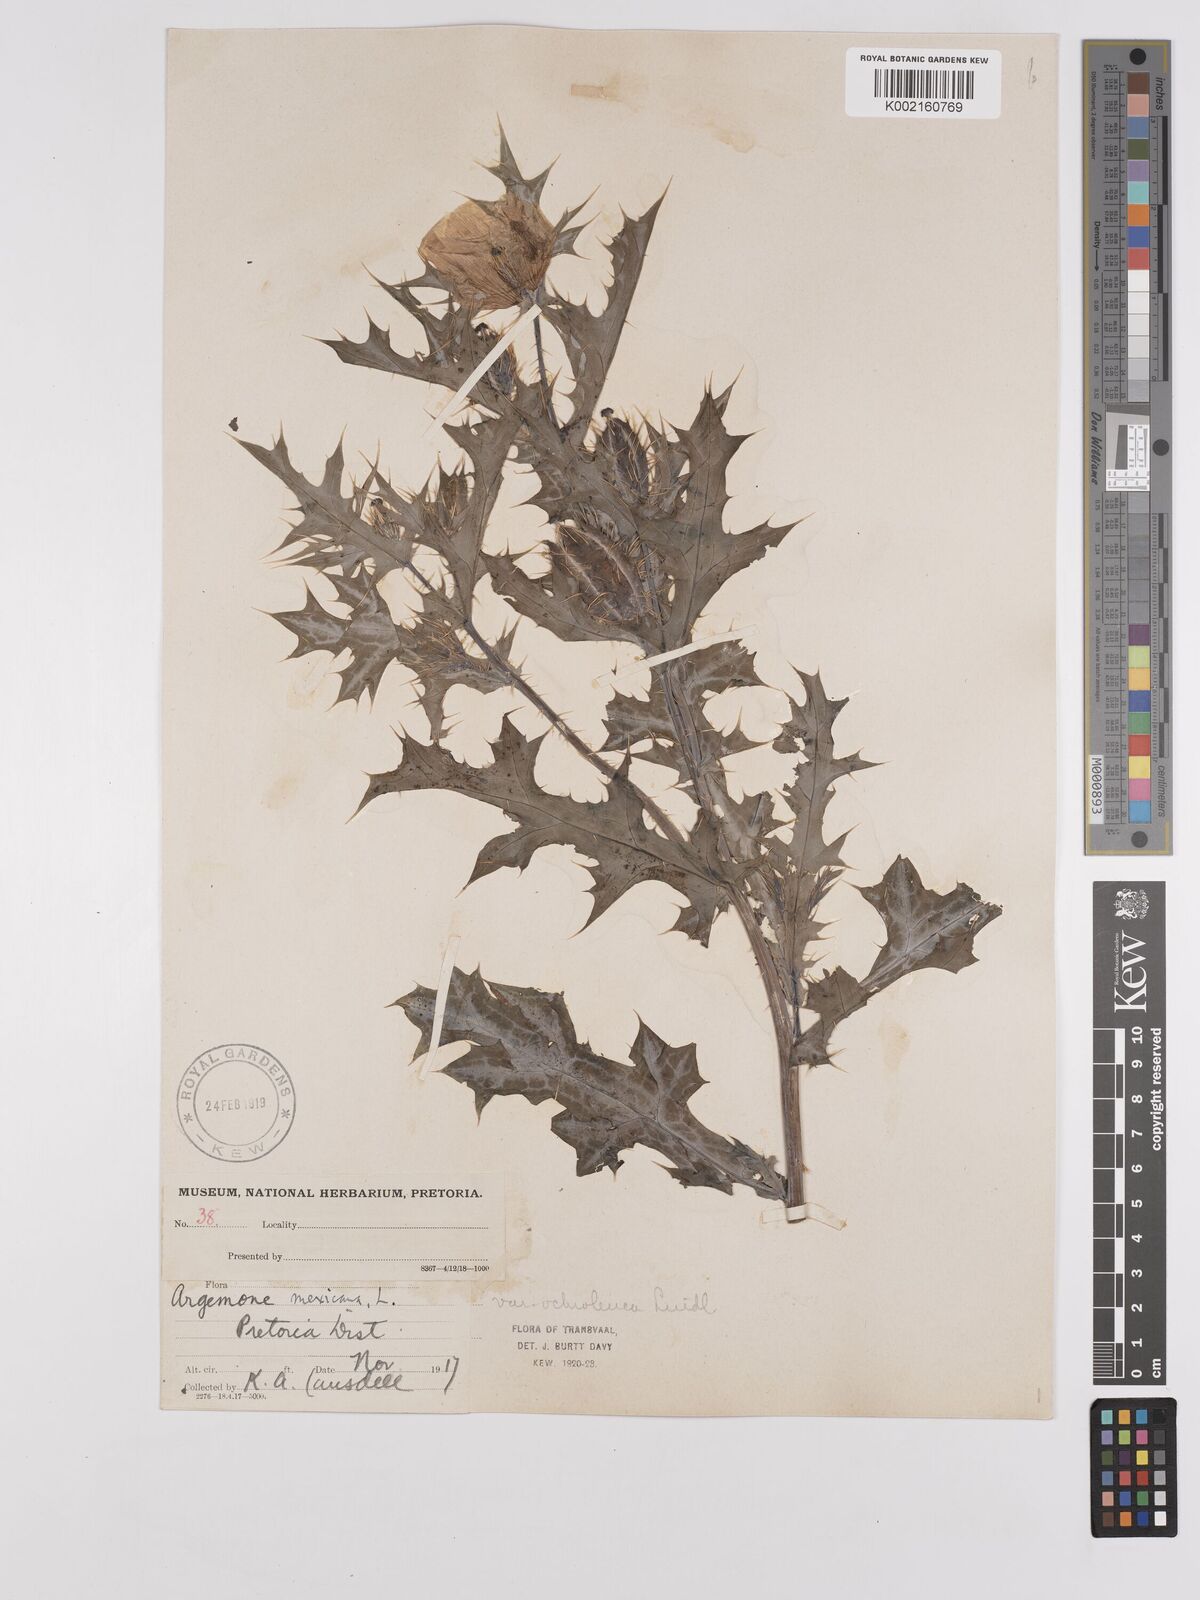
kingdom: Plantae
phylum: Tracheophyta
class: Magnoliopsida
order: Ranunculales
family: Papaveraceae
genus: Argemone
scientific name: Argemone mexicana
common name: Mexican poppy
